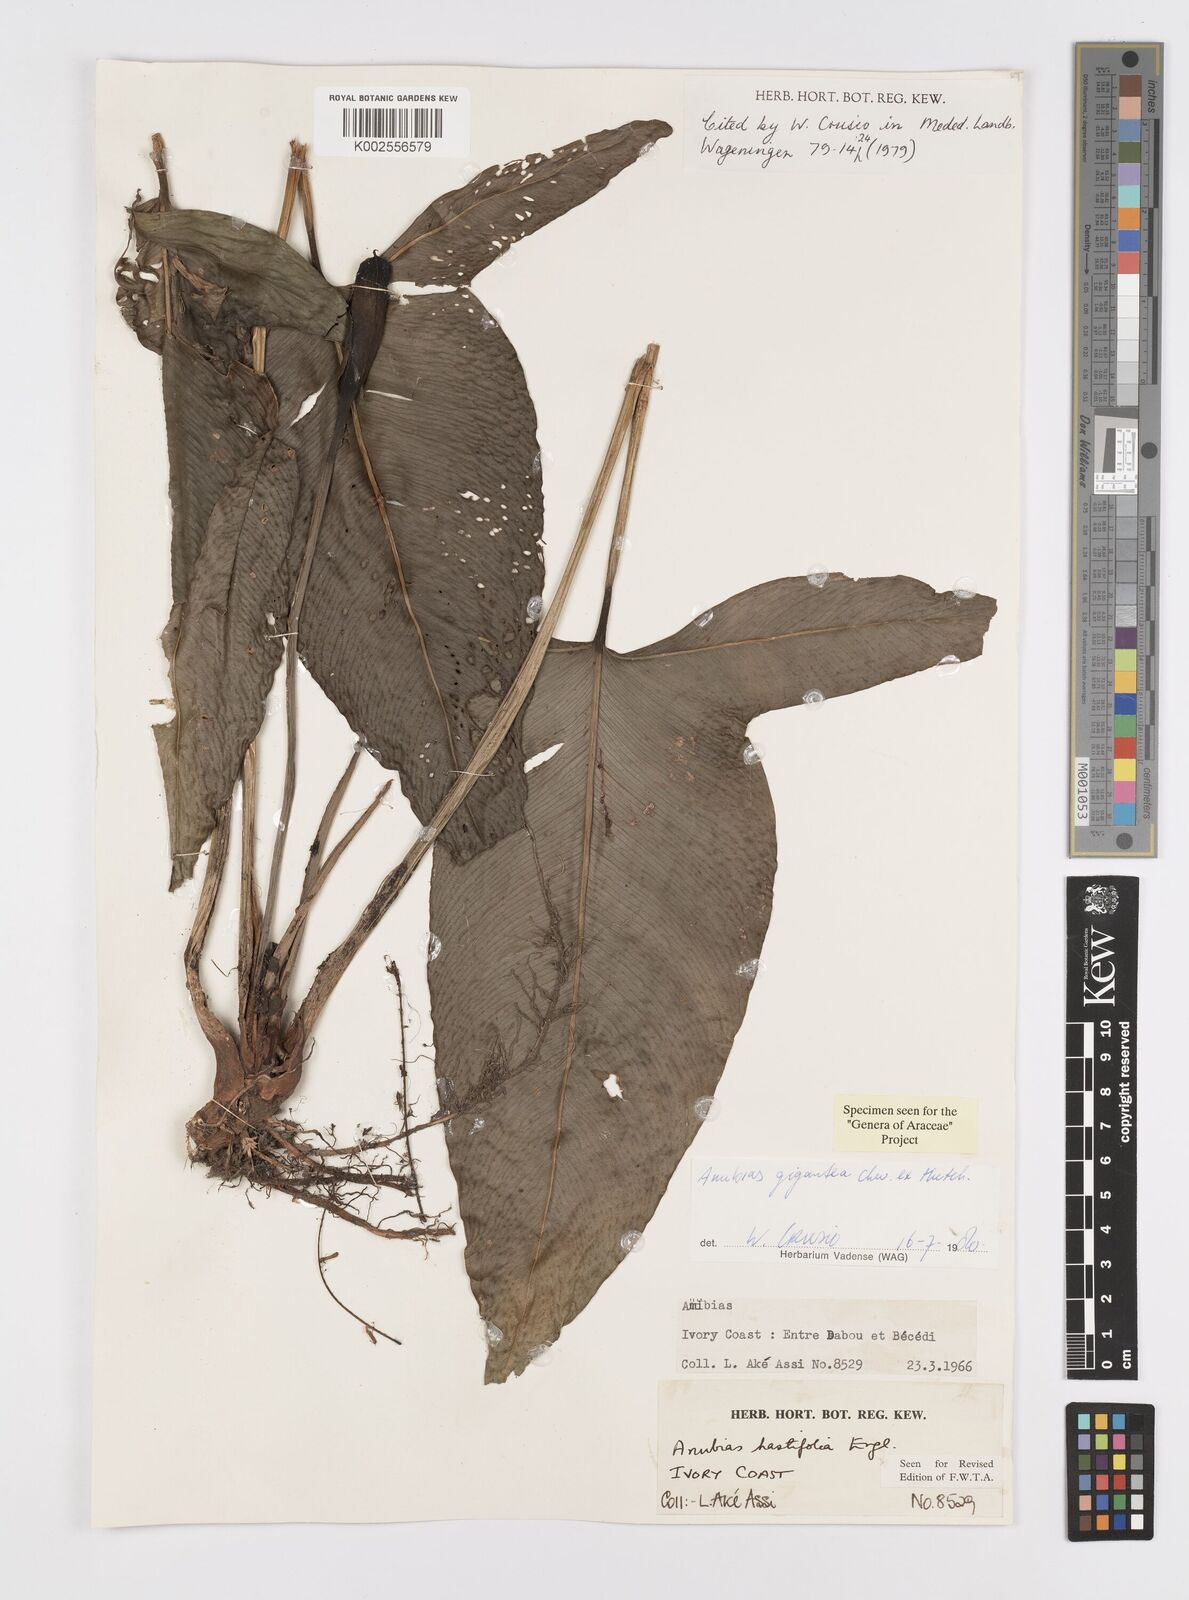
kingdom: Plantae
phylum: Tracheophyta
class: Liliopsida
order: Alismatales
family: Araceae
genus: Anubias
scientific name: Anubias gigantea
